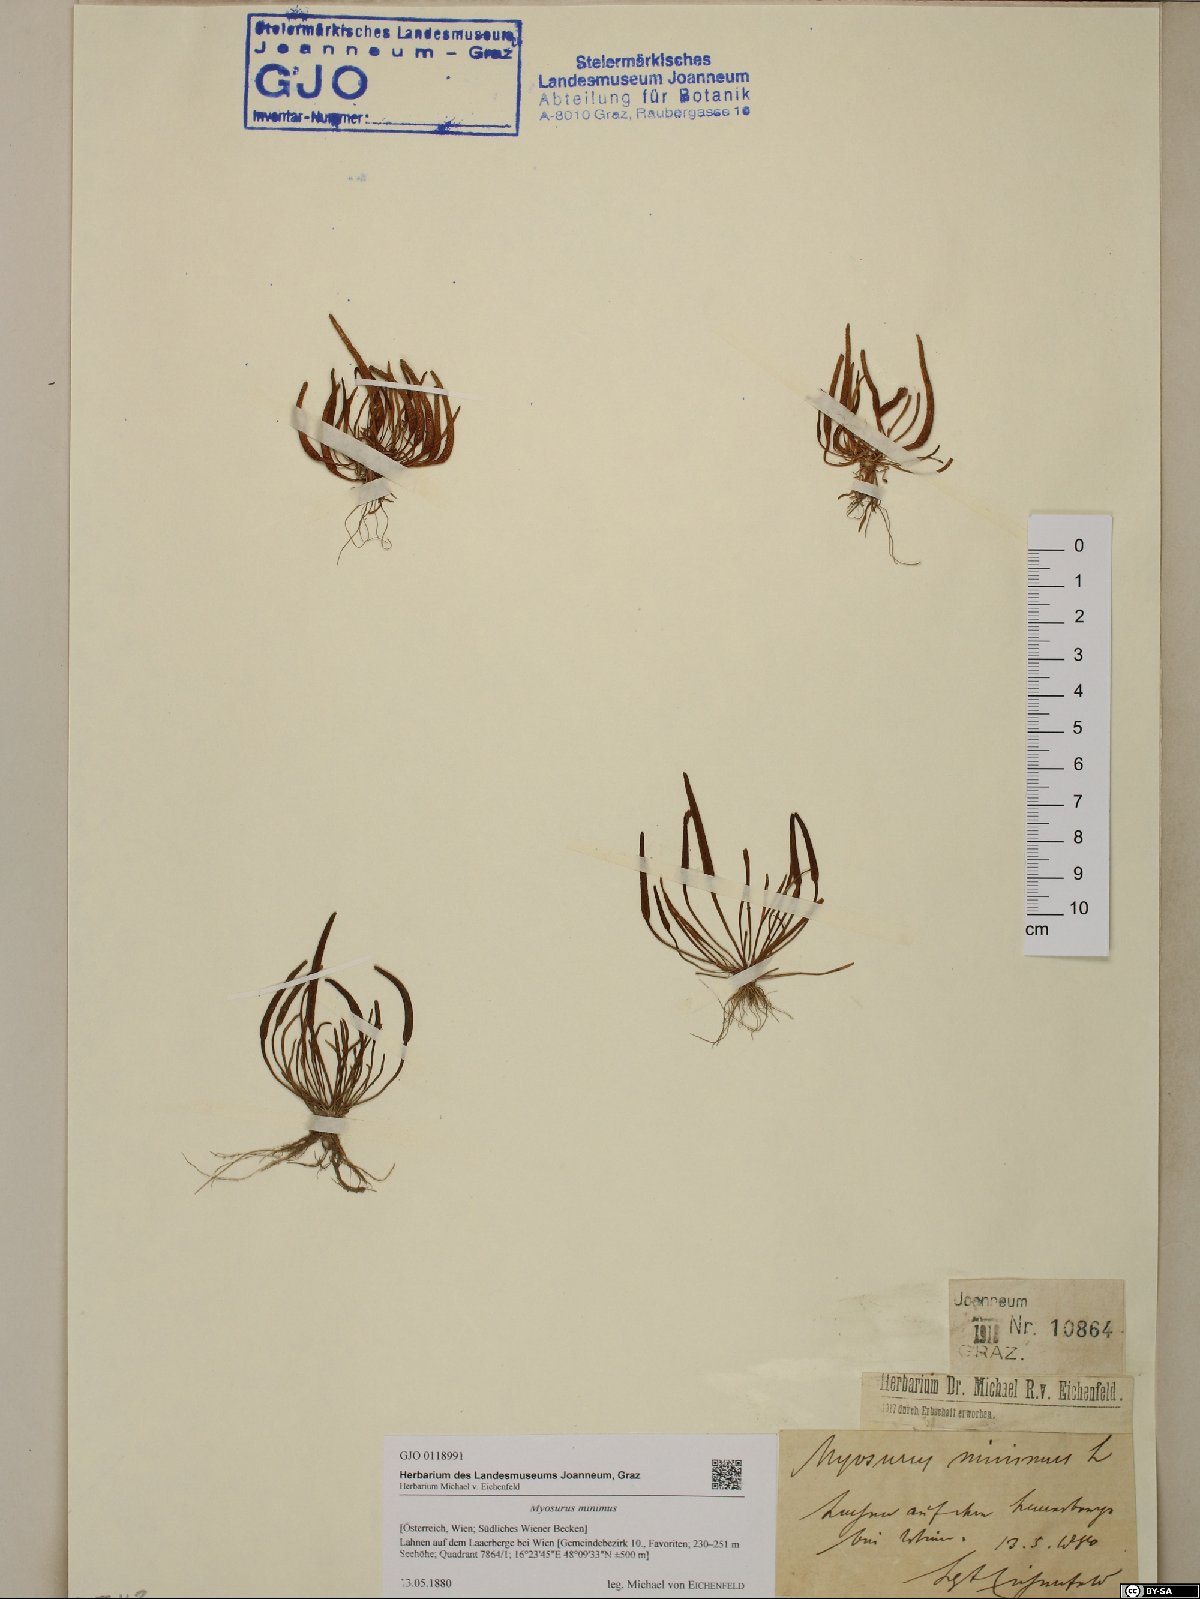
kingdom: Plantae
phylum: Tracheophyta
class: Magnoliopsida
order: Ranunculales
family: Ranunculaceae
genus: Myosurus
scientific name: Myosurus minimus
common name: Mousetail
